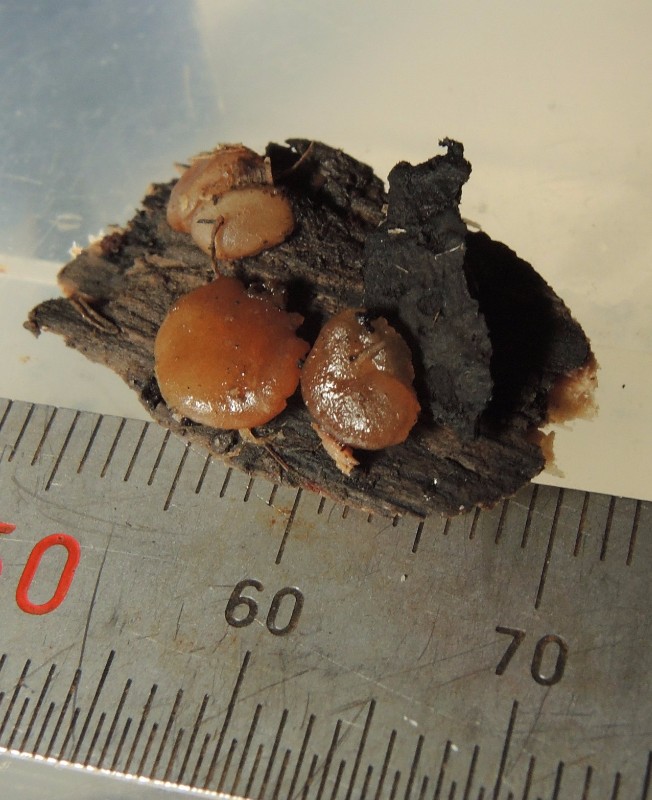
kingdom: Fungi
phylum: Ascomycota
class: Pezizomycetes
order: Pezizales
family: Pezizaceae
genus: Adelphella
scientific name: Adelphella babingtonii
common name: almindelig bækbæger
